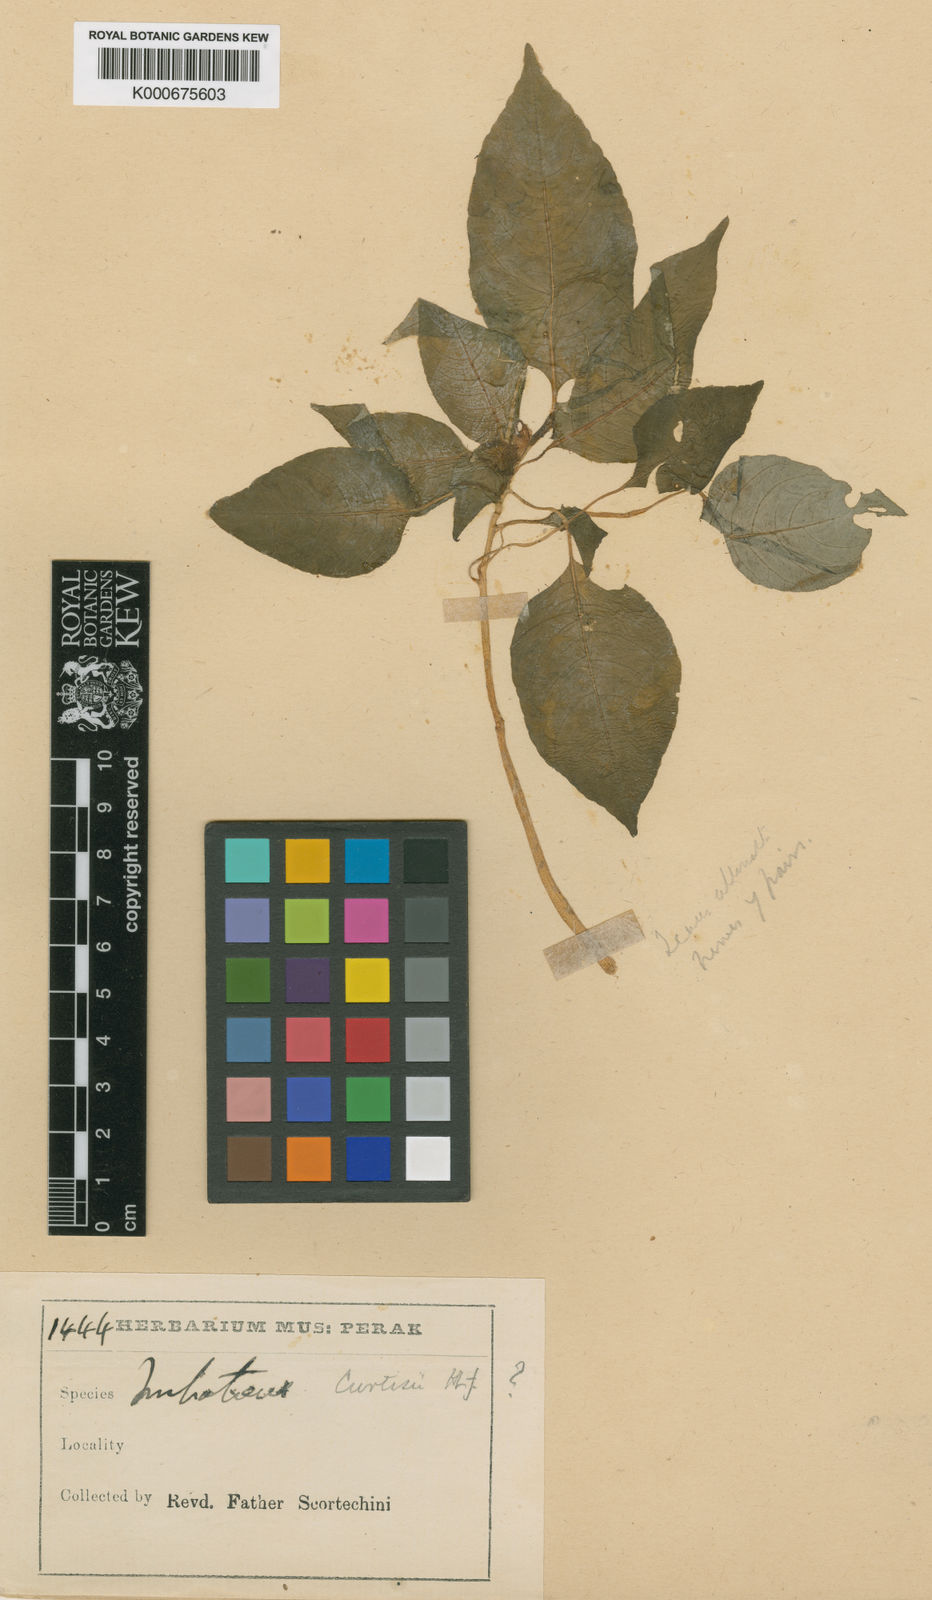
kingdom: Plantae
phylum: Tracheophyta
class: Magnoliopsida
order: Ericales
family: Balsaminaceae
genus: Impatiens
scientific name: Impatiens curtisii
